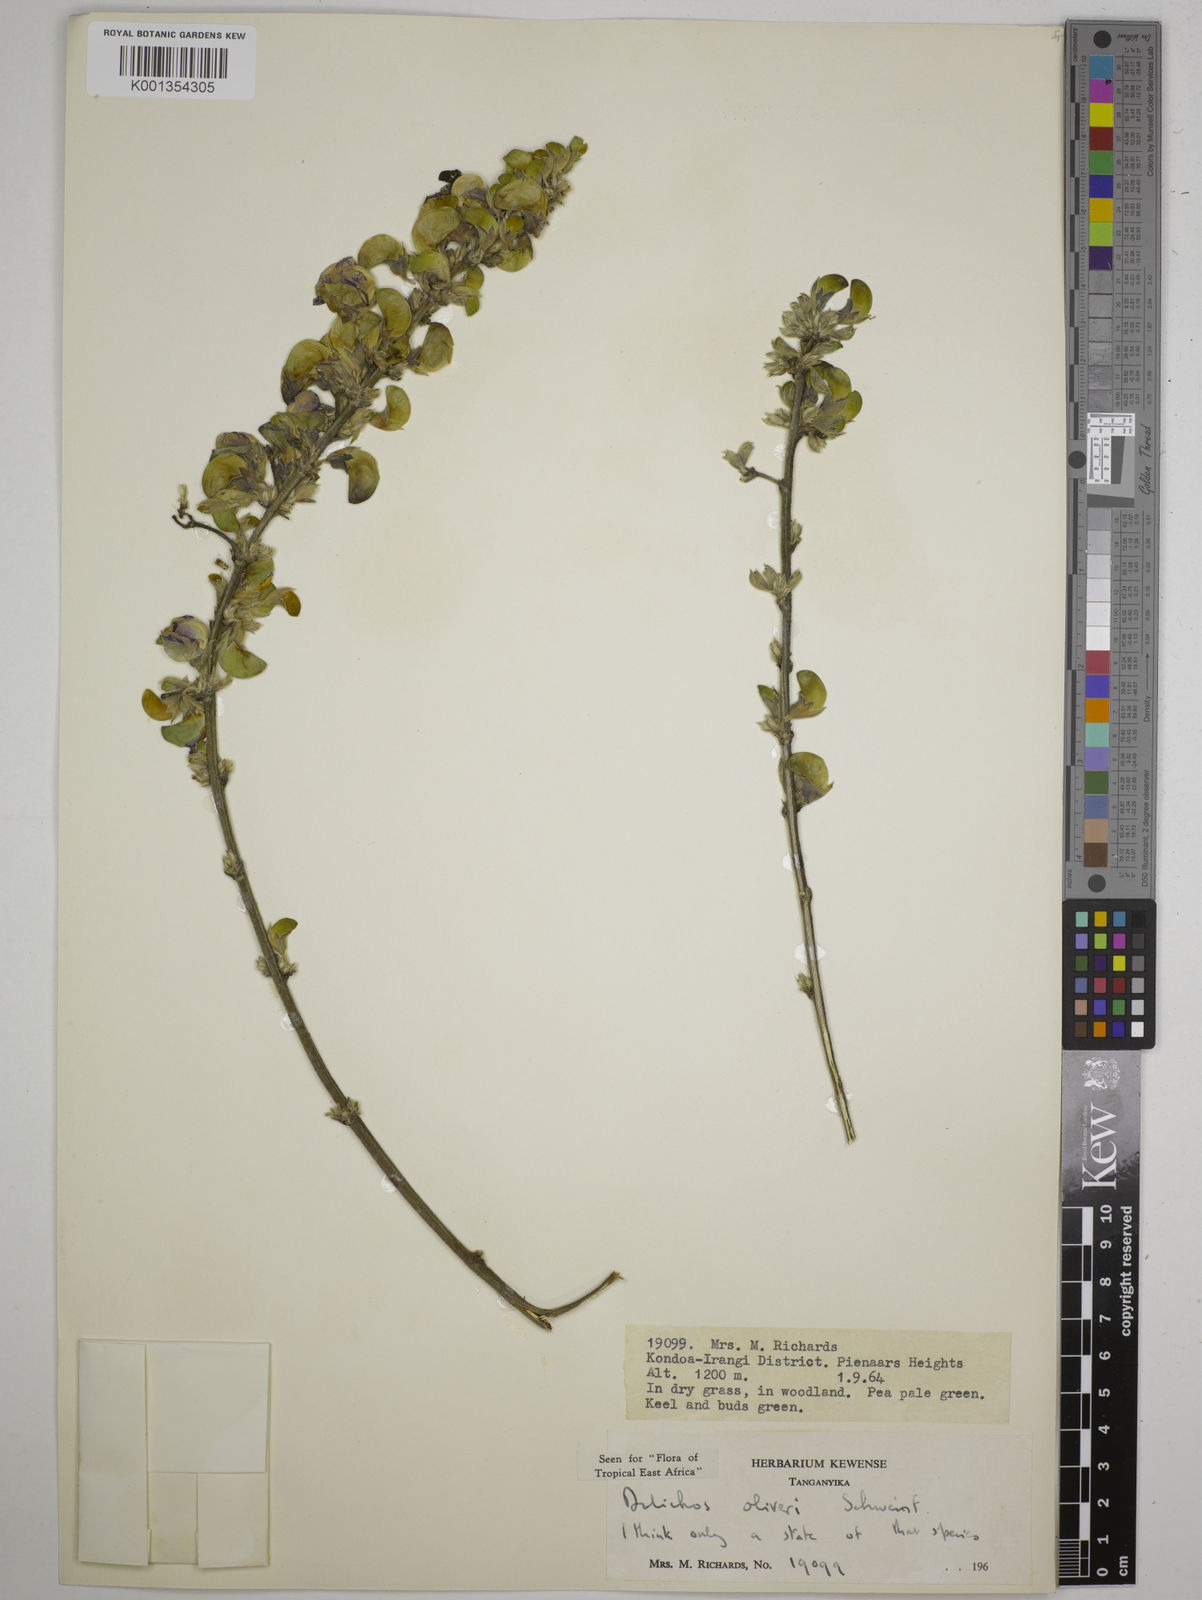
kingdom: Plantae
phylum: Tracheophyta
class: Magnoliopsida
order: Fabales
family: Fabaceae
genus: Dolichos
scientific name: Dolichos oliveri
